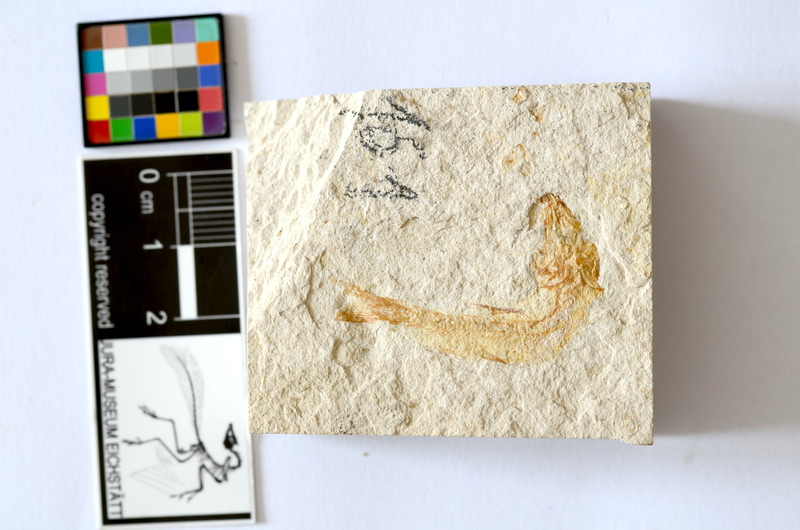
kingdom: Animalia
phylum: Chordata
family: Ascalaboidae
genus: Tharsis
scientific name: Tharsis dubius
